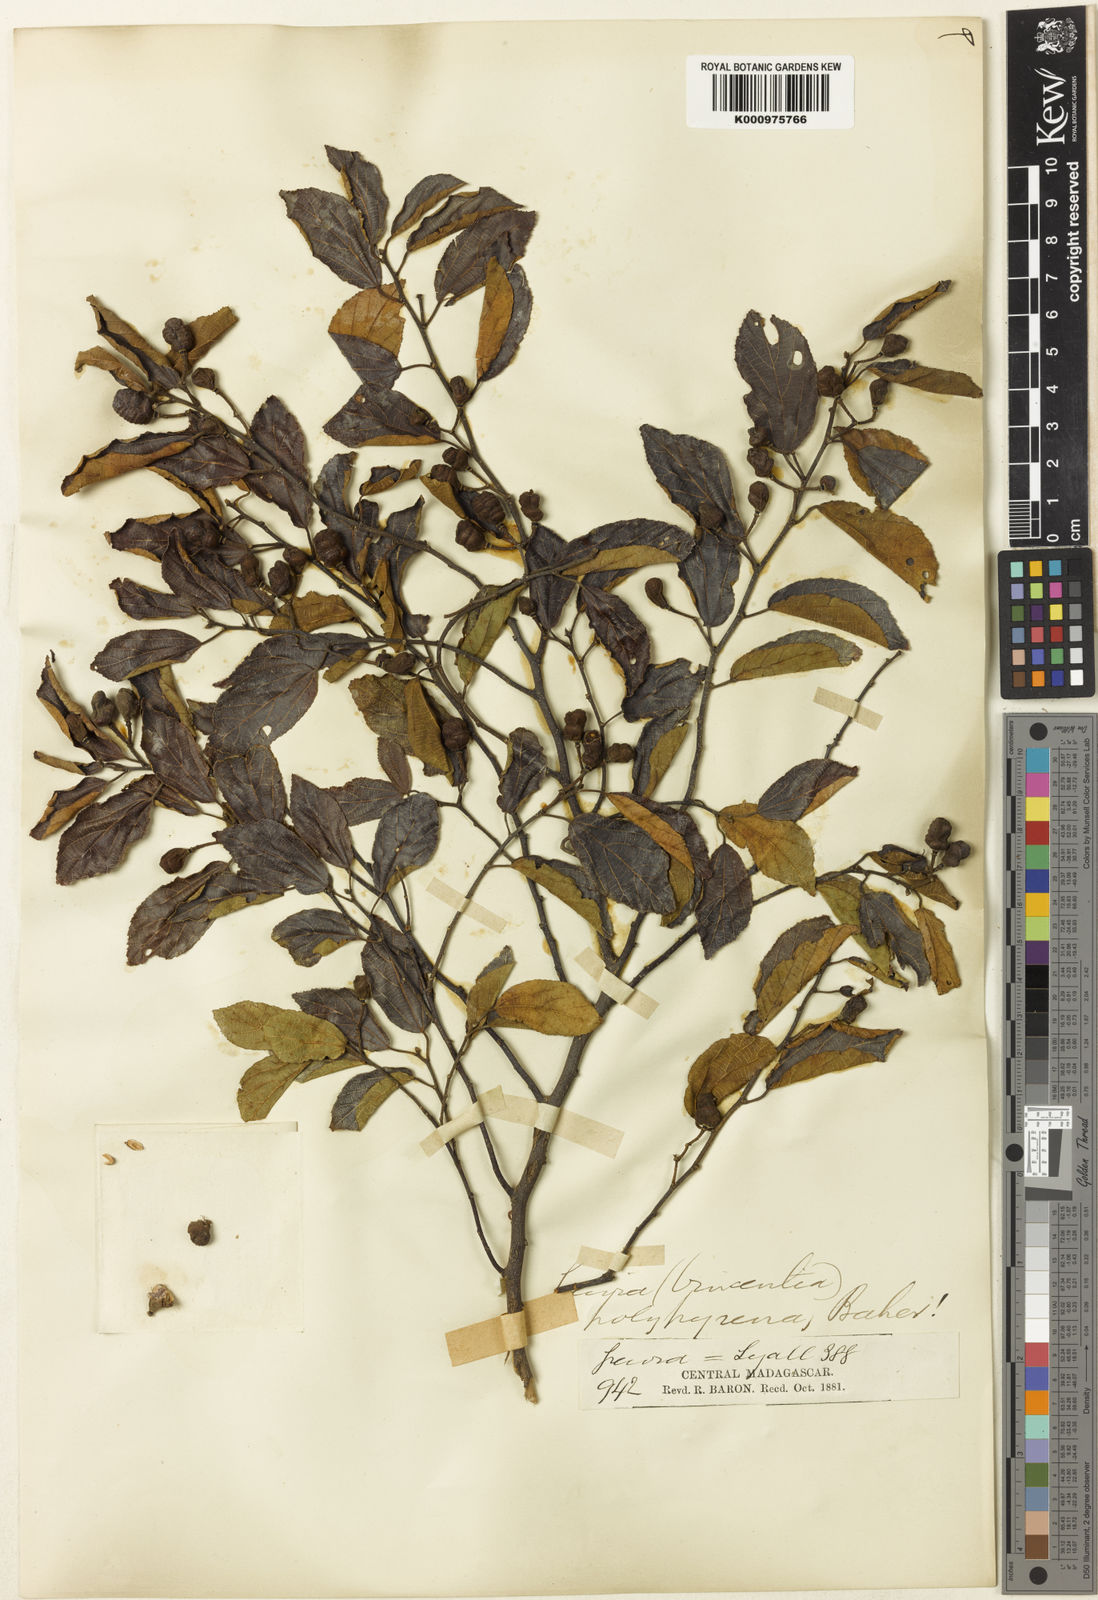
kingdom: Plantae
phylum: Tracheophyta
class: Magnoliopsida
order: Malvales
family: Malvaceae
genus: Grewia
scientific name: Grewia rhomboides
